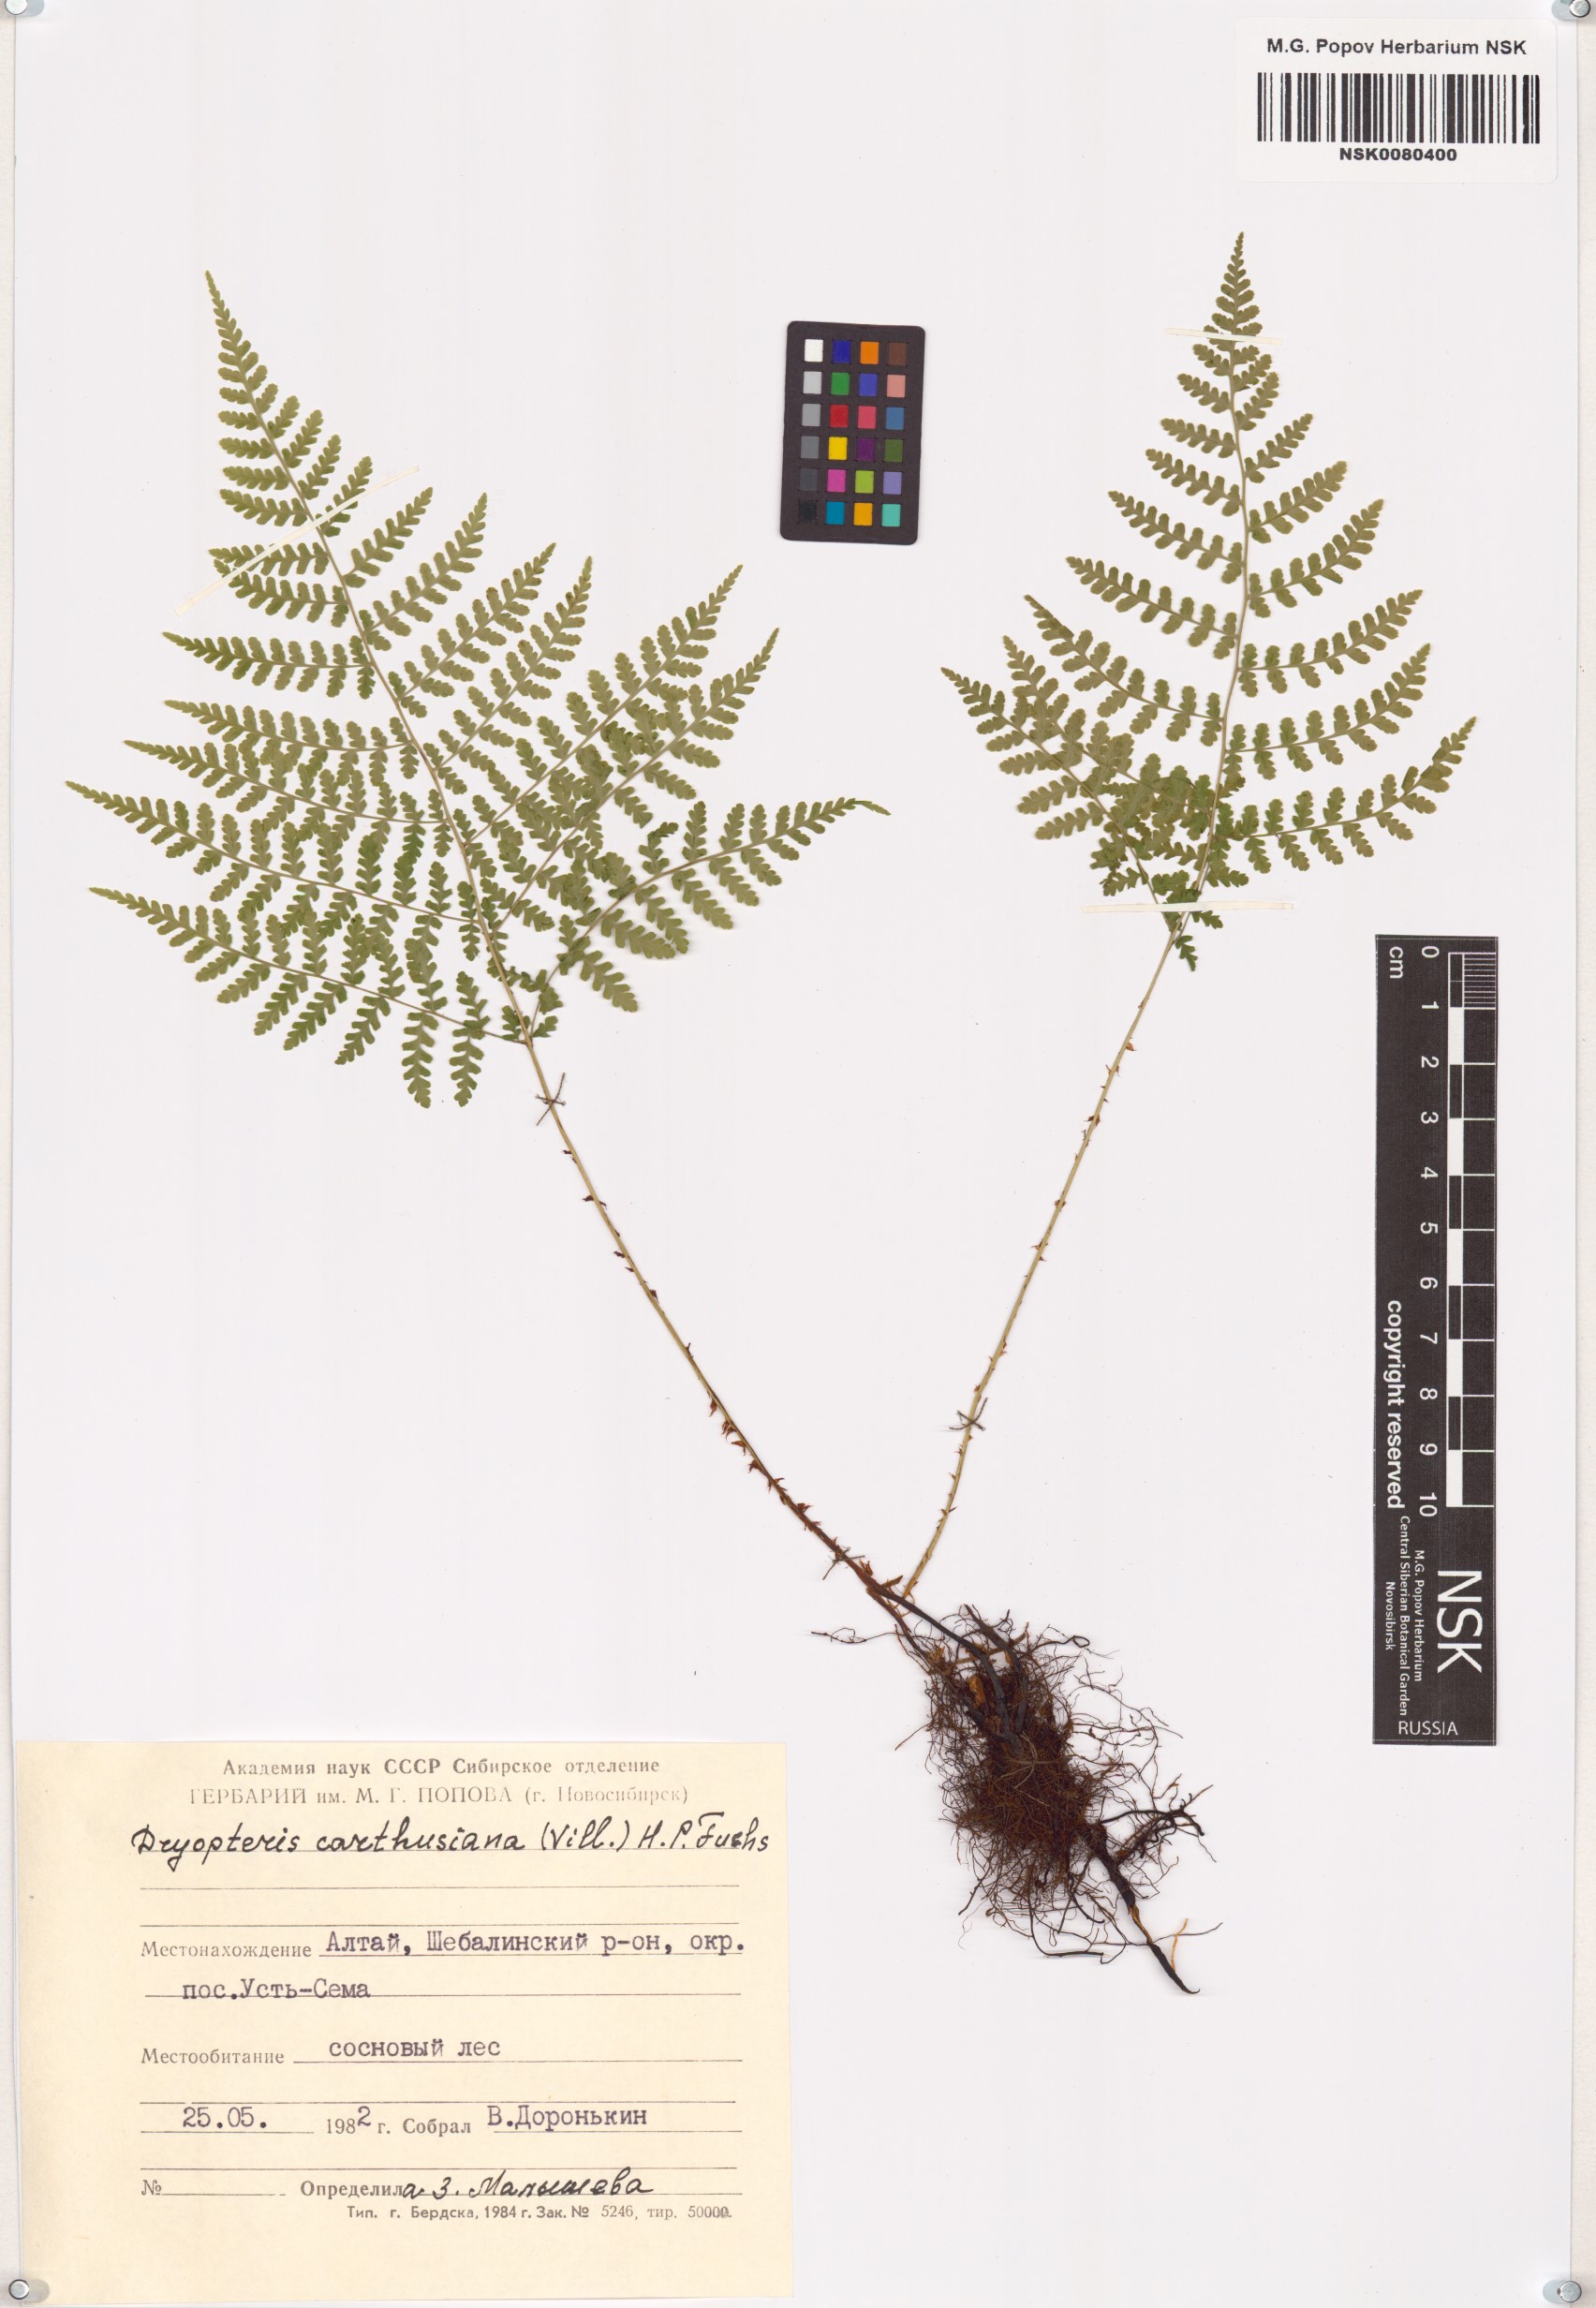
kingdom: Plantae
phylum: Tracheophyta
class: Polypodiopsida
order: Polypodiales
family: Dryopteridaceae
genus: Dryopteris
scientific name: Dryopteris carthusiana
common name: Narrow buckler-fern
